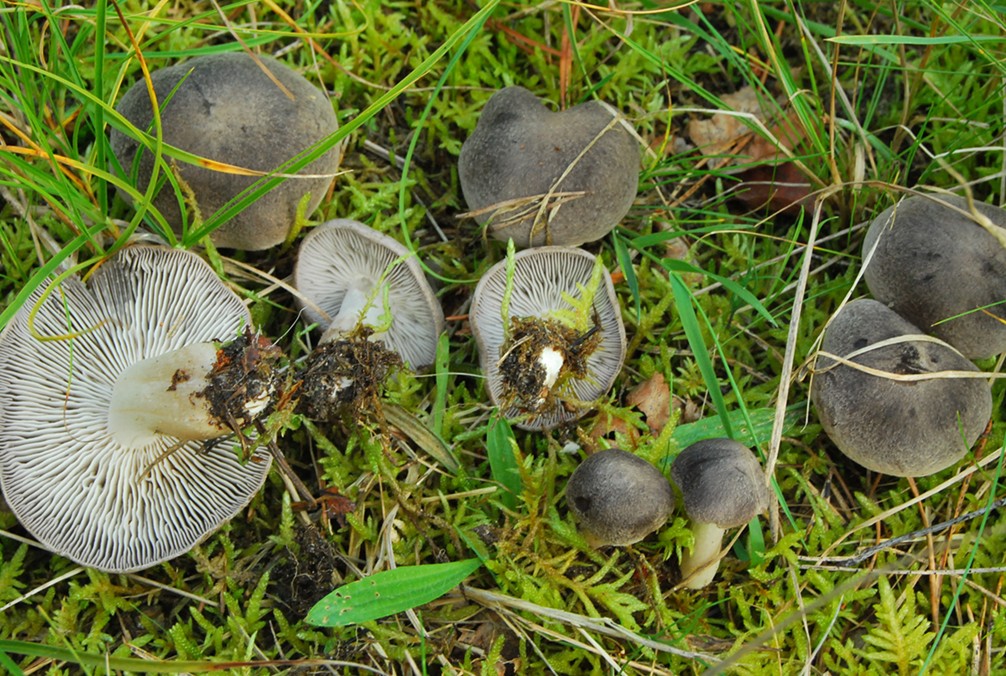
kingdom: Fungi
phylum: Basidiomycota
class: Agaricomycetes
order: Agaricales
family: Tricholomataceae
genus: Tricholoma
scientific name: Tricholoma terreum
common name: jordfarvet ridderhat
